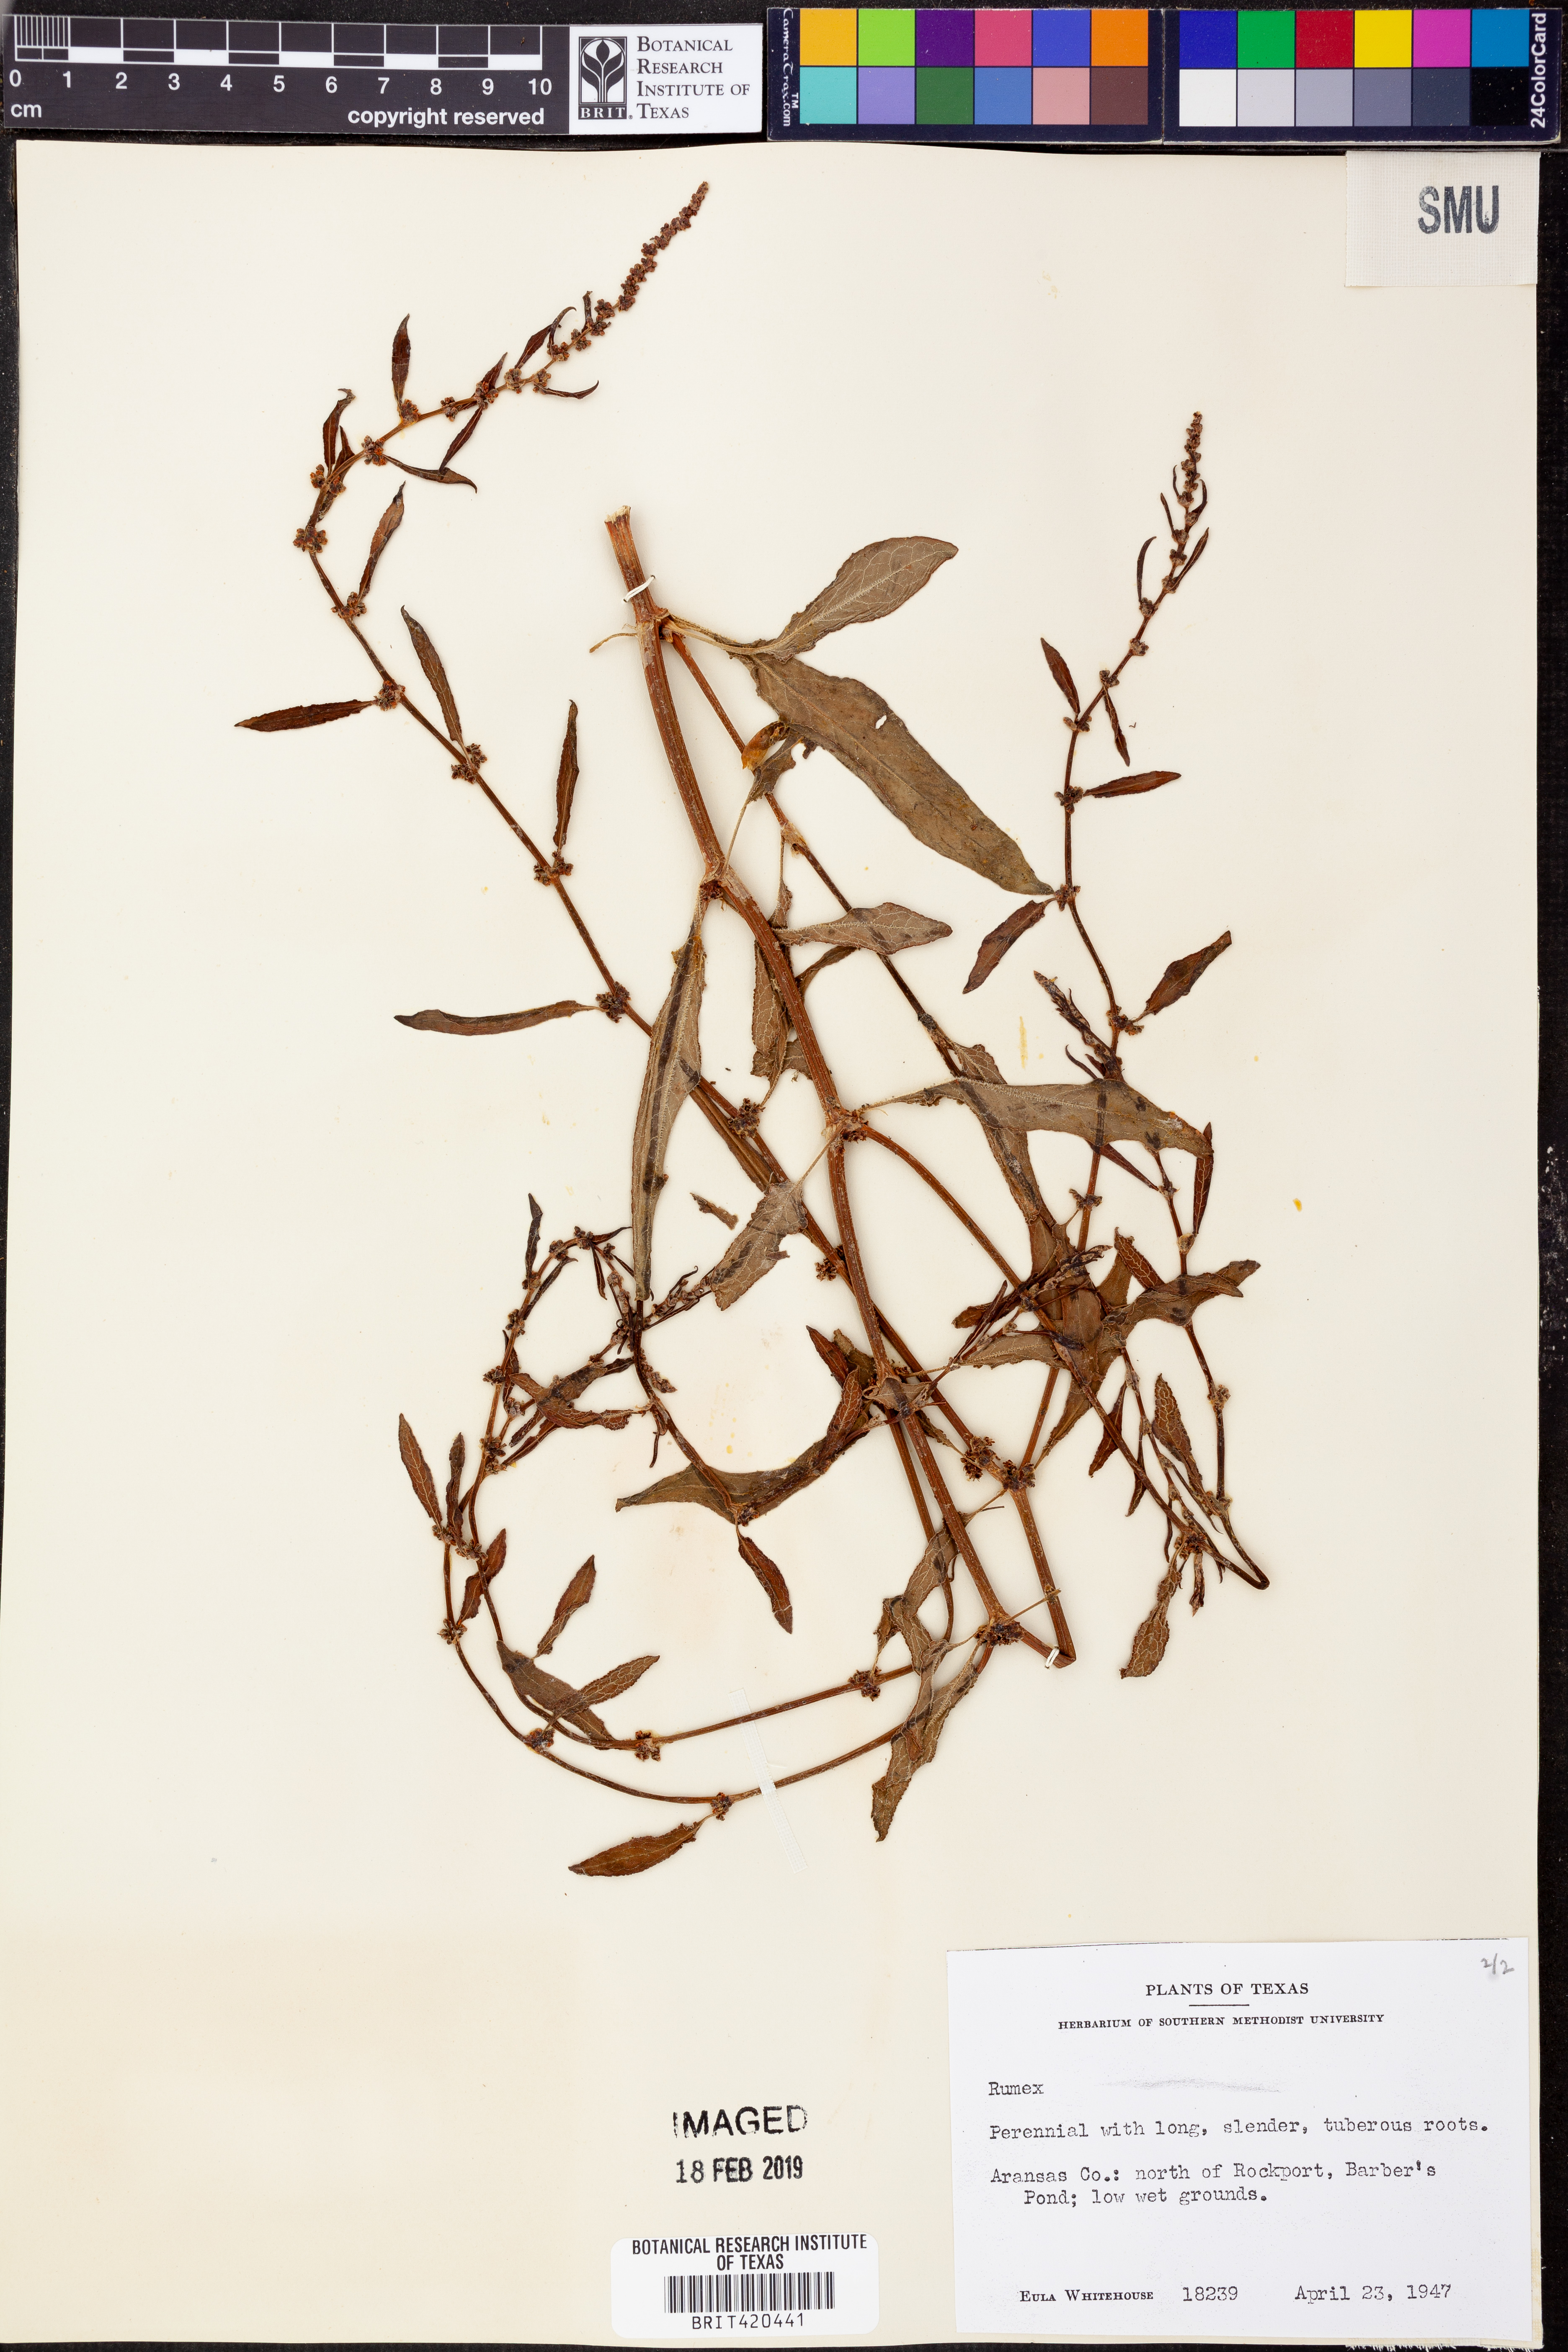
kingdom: Plantae
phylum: Tracheophyta
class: Magnoliopsida
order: Caryophyllales
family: Polygonaceae
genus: Rumex
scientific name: Rumex
